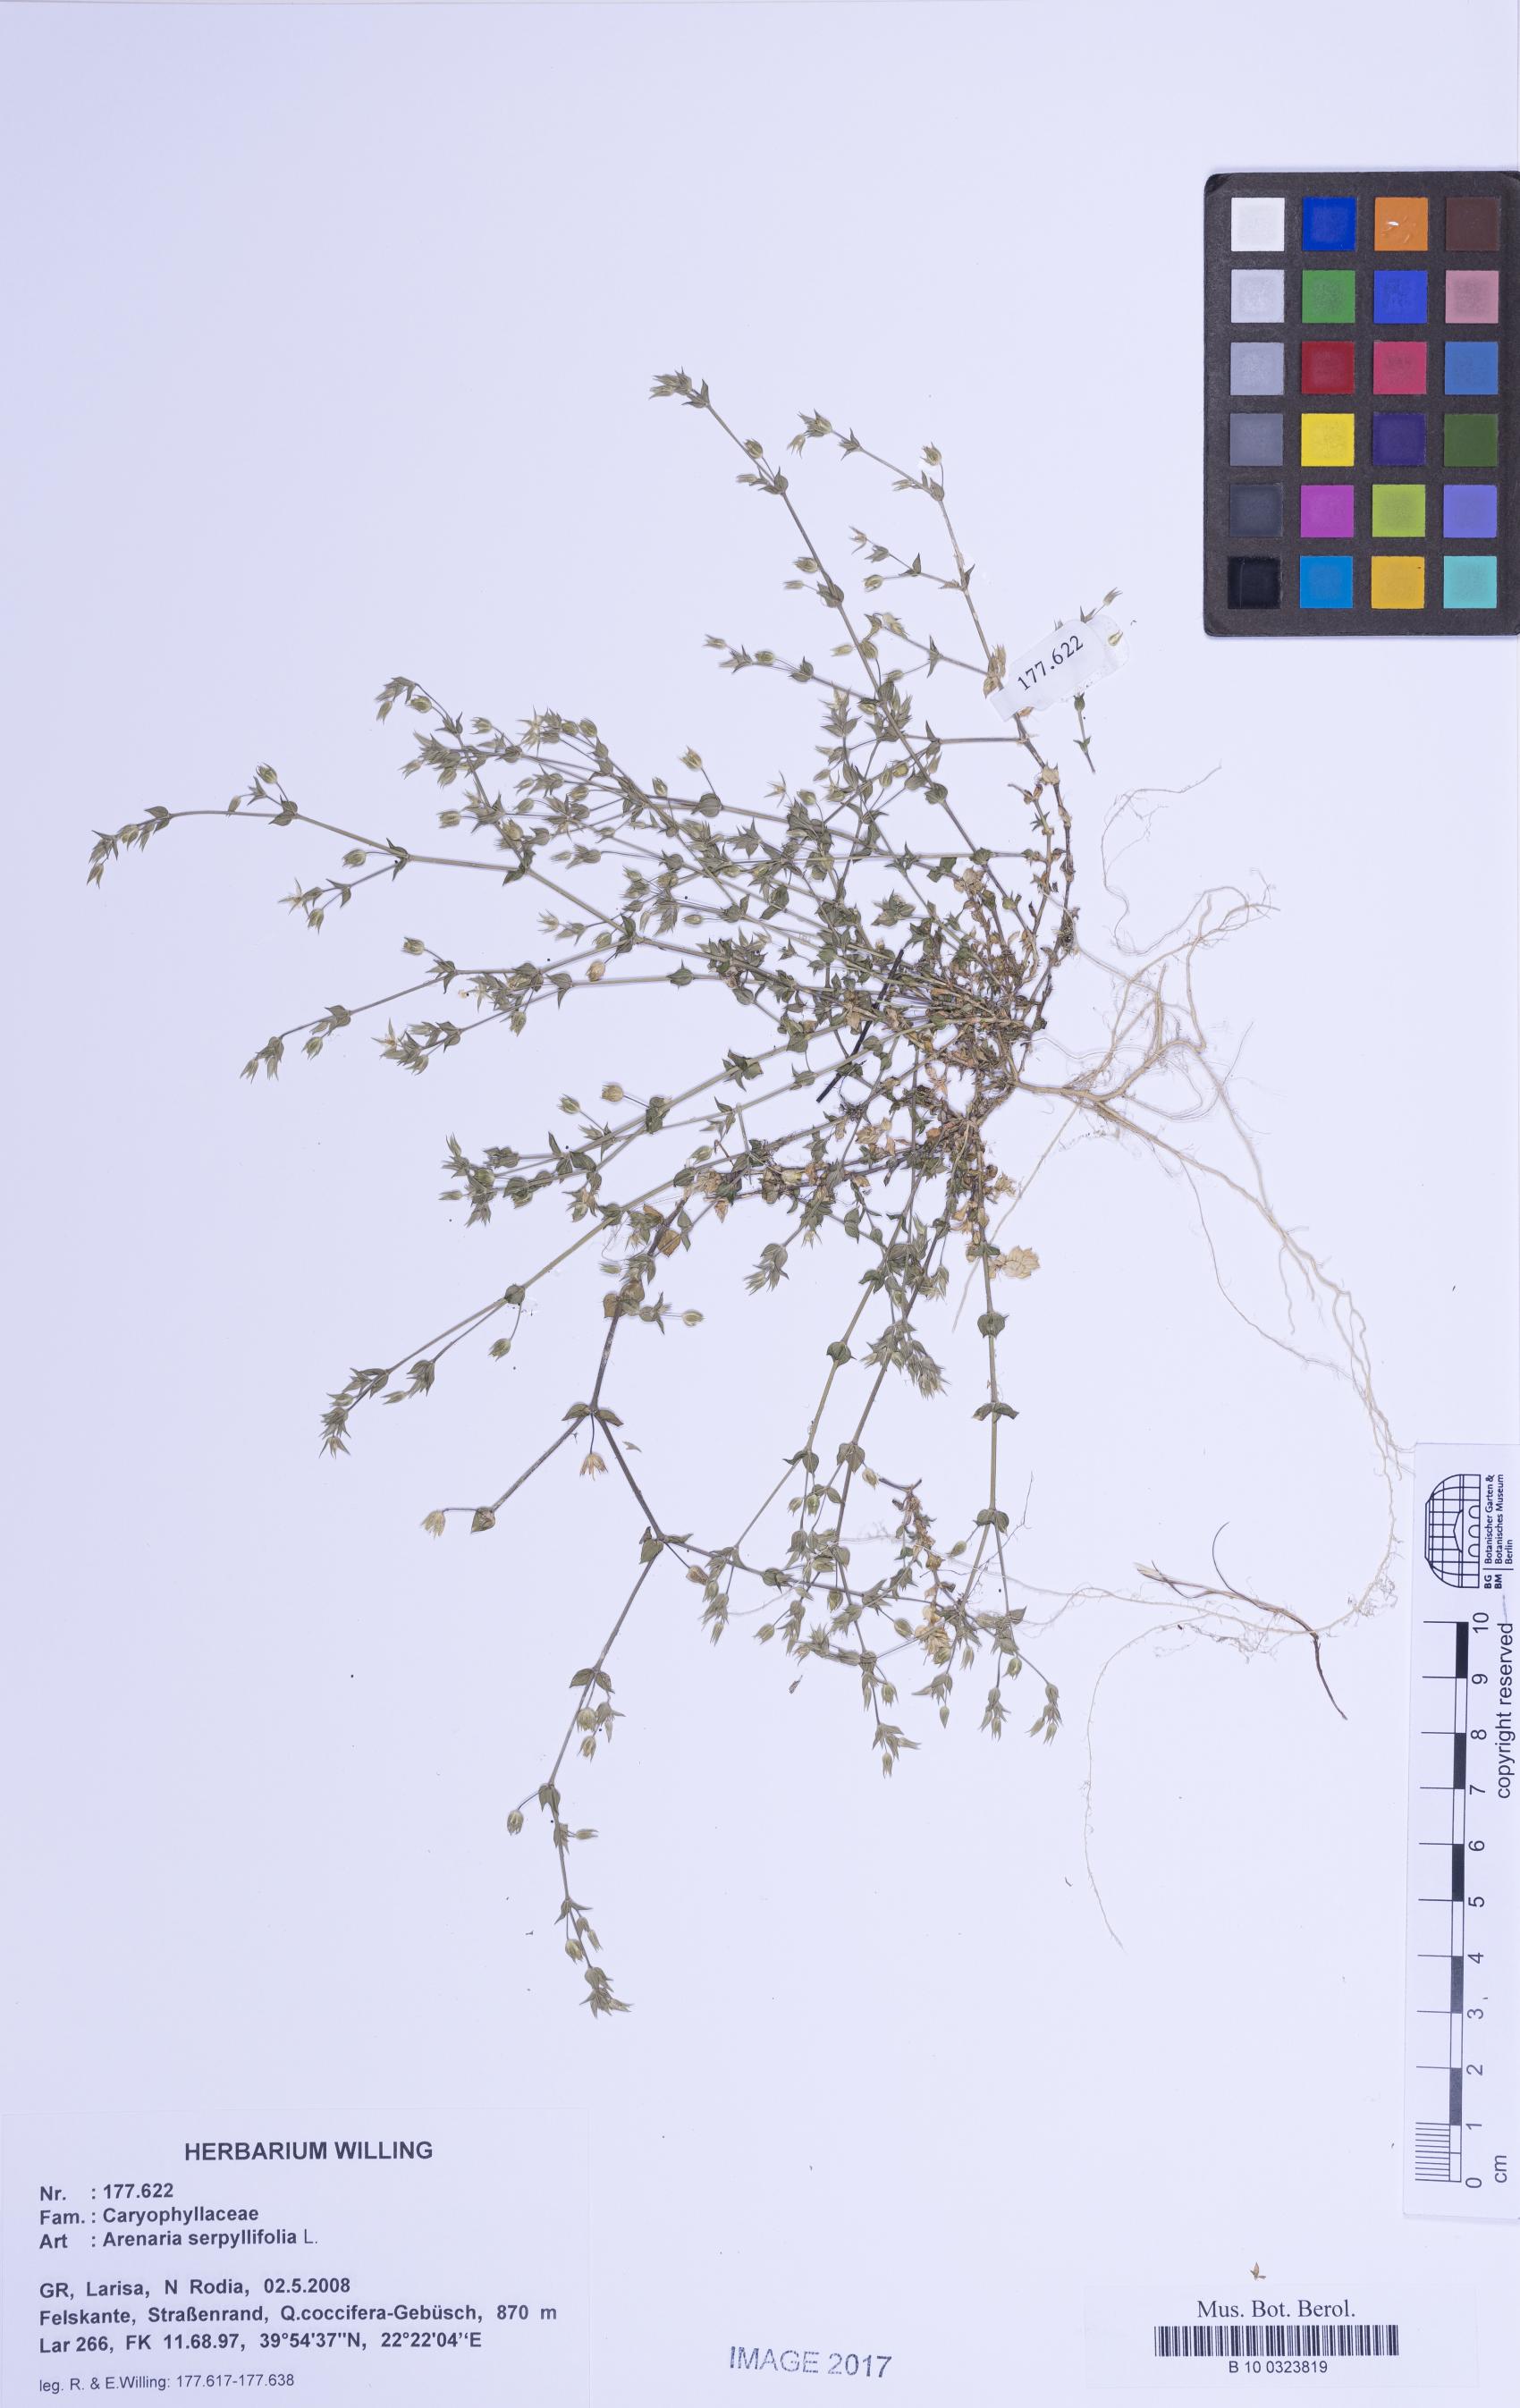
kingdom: Plantae
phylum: Tracheophyta
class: Magnoliopsida
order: Caryophyllales
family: Caryophyllaceae
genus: Arenaria
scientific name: Arenaria serpyllifolia
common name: Thyme-leaved sandwort
